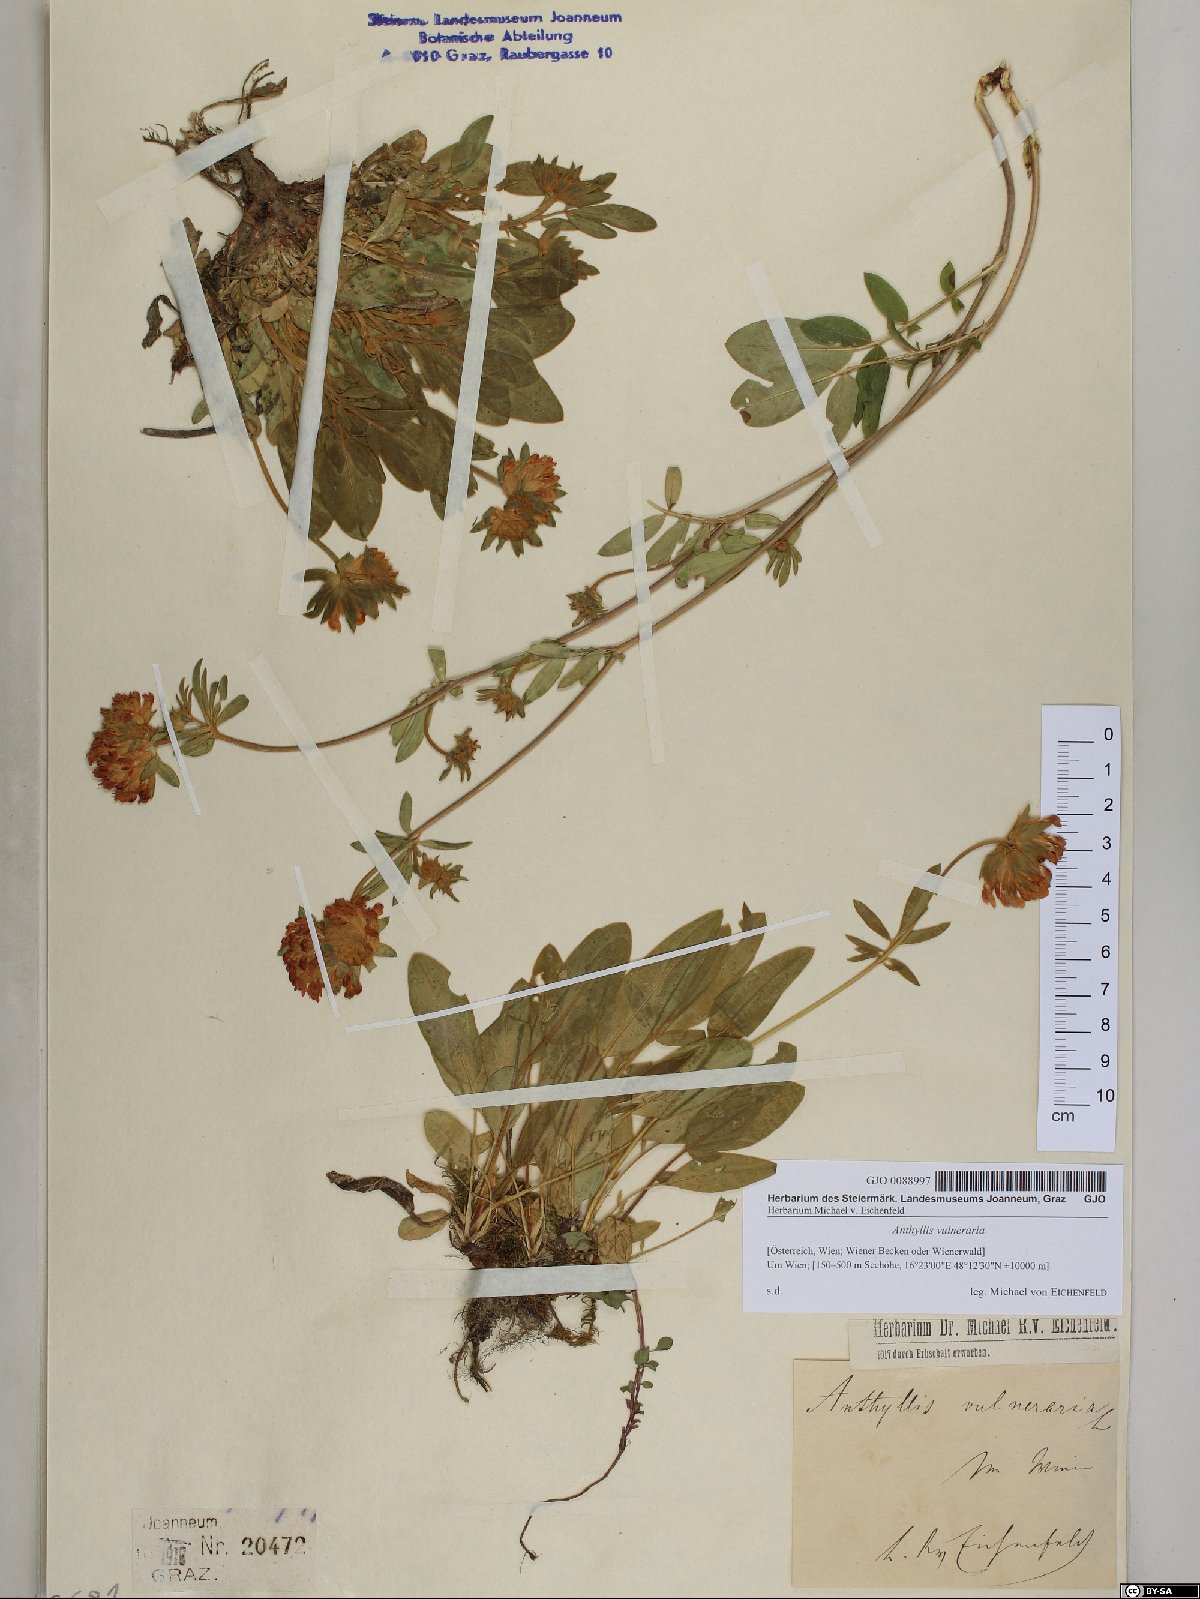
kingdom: Plantae
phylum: Tracheophyta
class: Magnoliopsida
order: Fabales
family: Fabaceae
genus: Anthyllis
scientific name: Anthyllis vulneraria
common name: Kidney vetch
